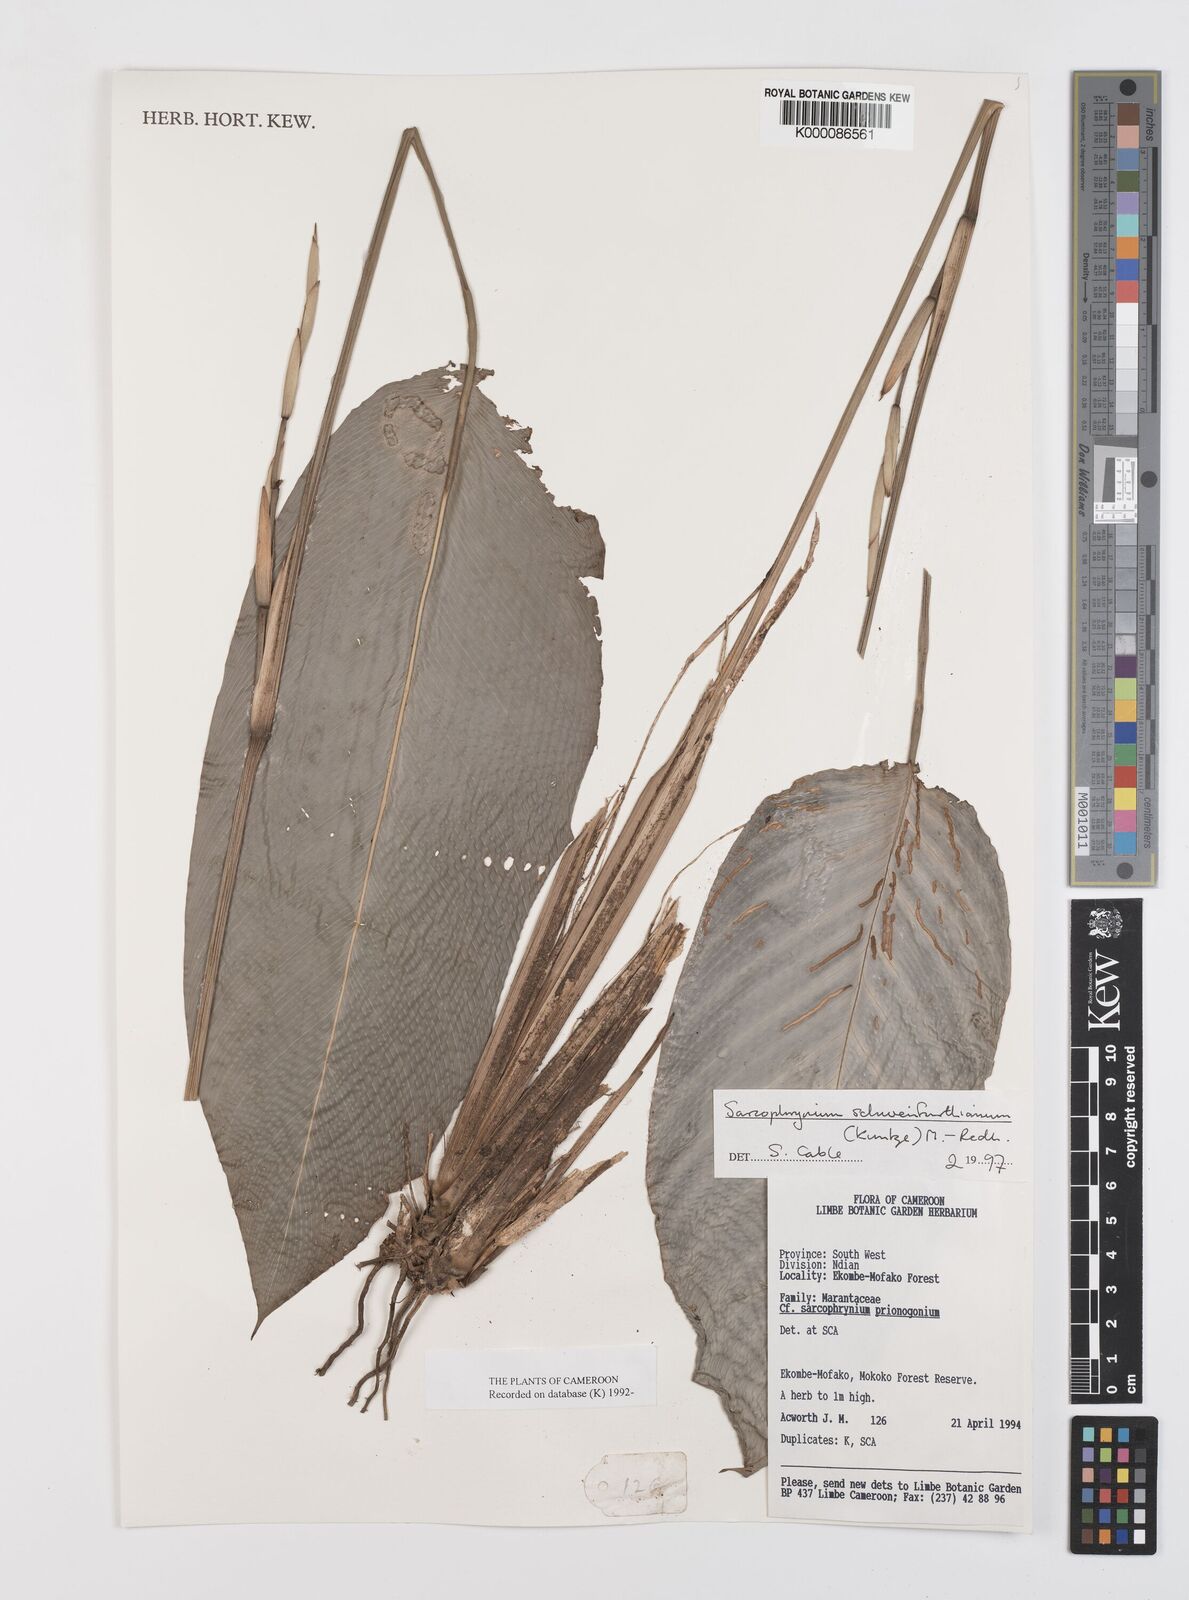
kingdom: Plantae
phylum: Tracheophyta
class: Liliopsida
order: Zingiberales
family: Marantaceae
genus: Sarcophrynium
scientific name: Sarcophrynium schweinfurthianum
